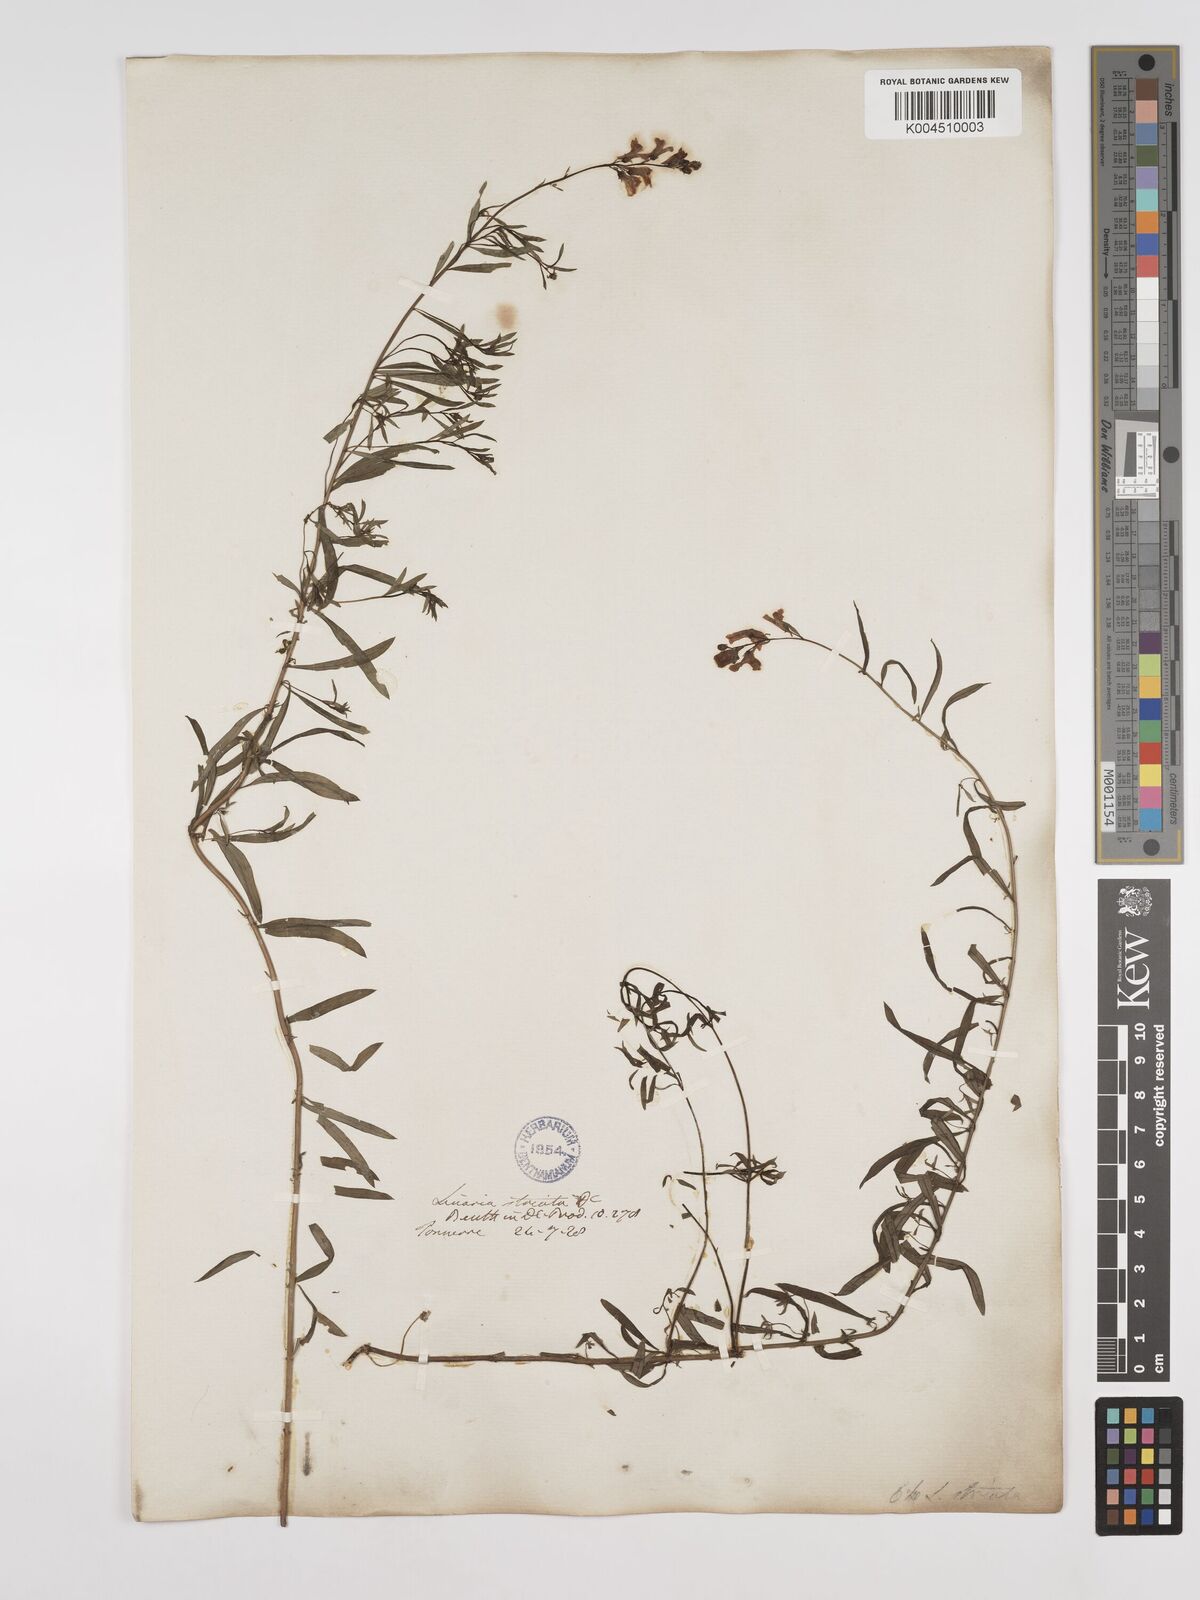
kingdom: Plantae
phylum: Tracheophyta
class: Magnoliopsida
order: Lamiales
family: Plantaginaceae
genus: Linaria
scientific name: Linaria repens
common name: Pale toadflax
